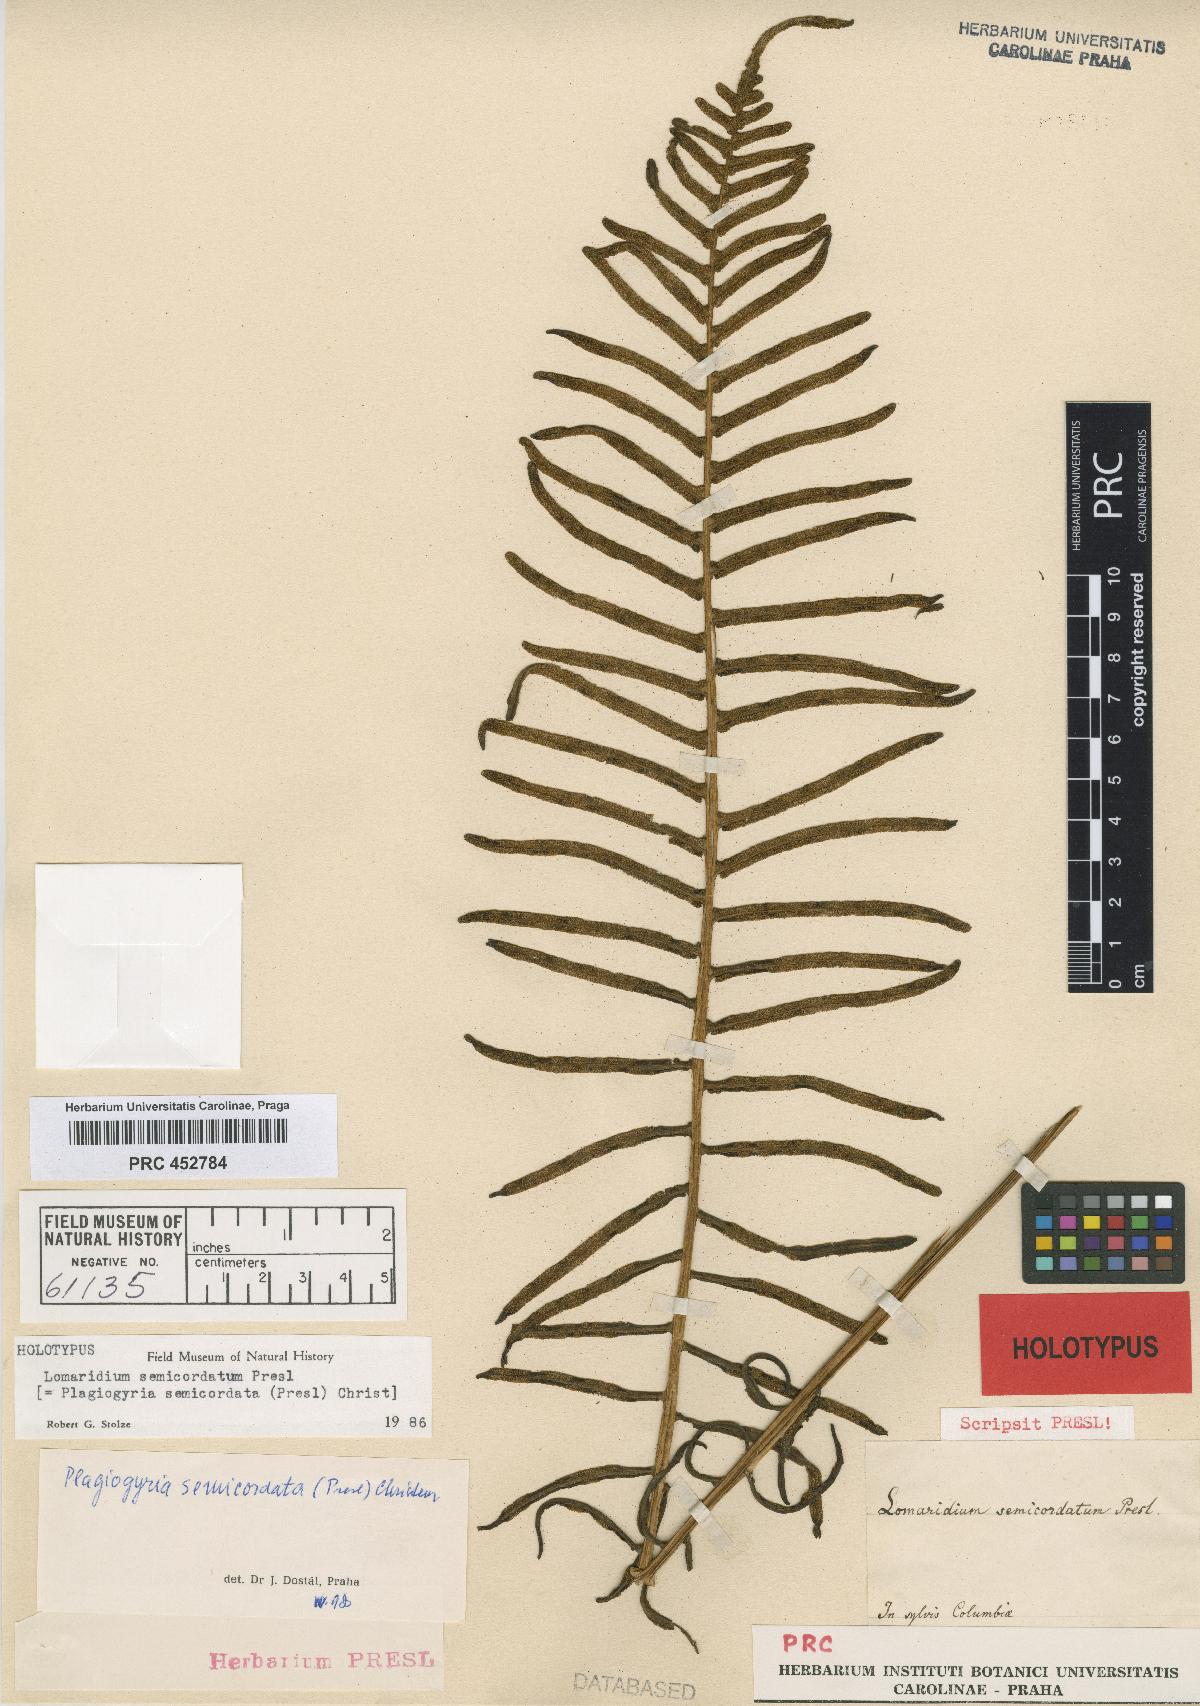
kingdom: Plantae
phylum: Tracheophyta
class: Polypodiopsida
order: Cyatheales
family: Plagiogyriaceae
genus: Plagiogyria
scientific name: Plagiogyria pectinata
